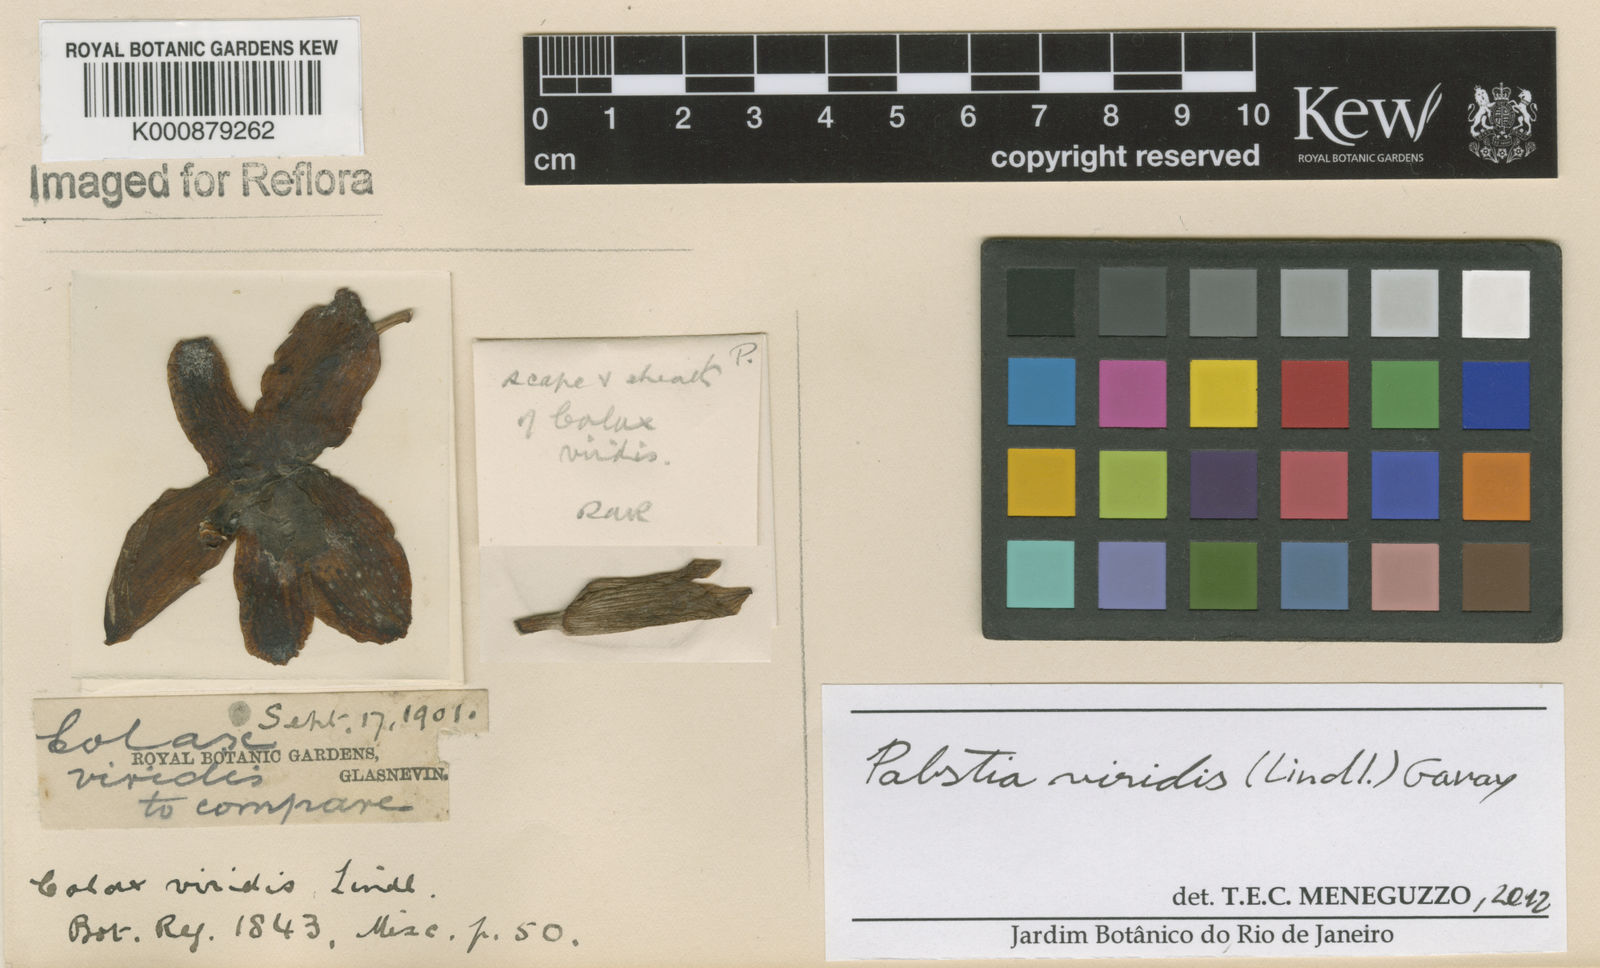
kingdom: Plantae
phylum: Tracheophyta
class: Liliopsida
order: Asparagales
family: Orchidaceae
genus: Pabstia
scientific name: Pabstia viridis
